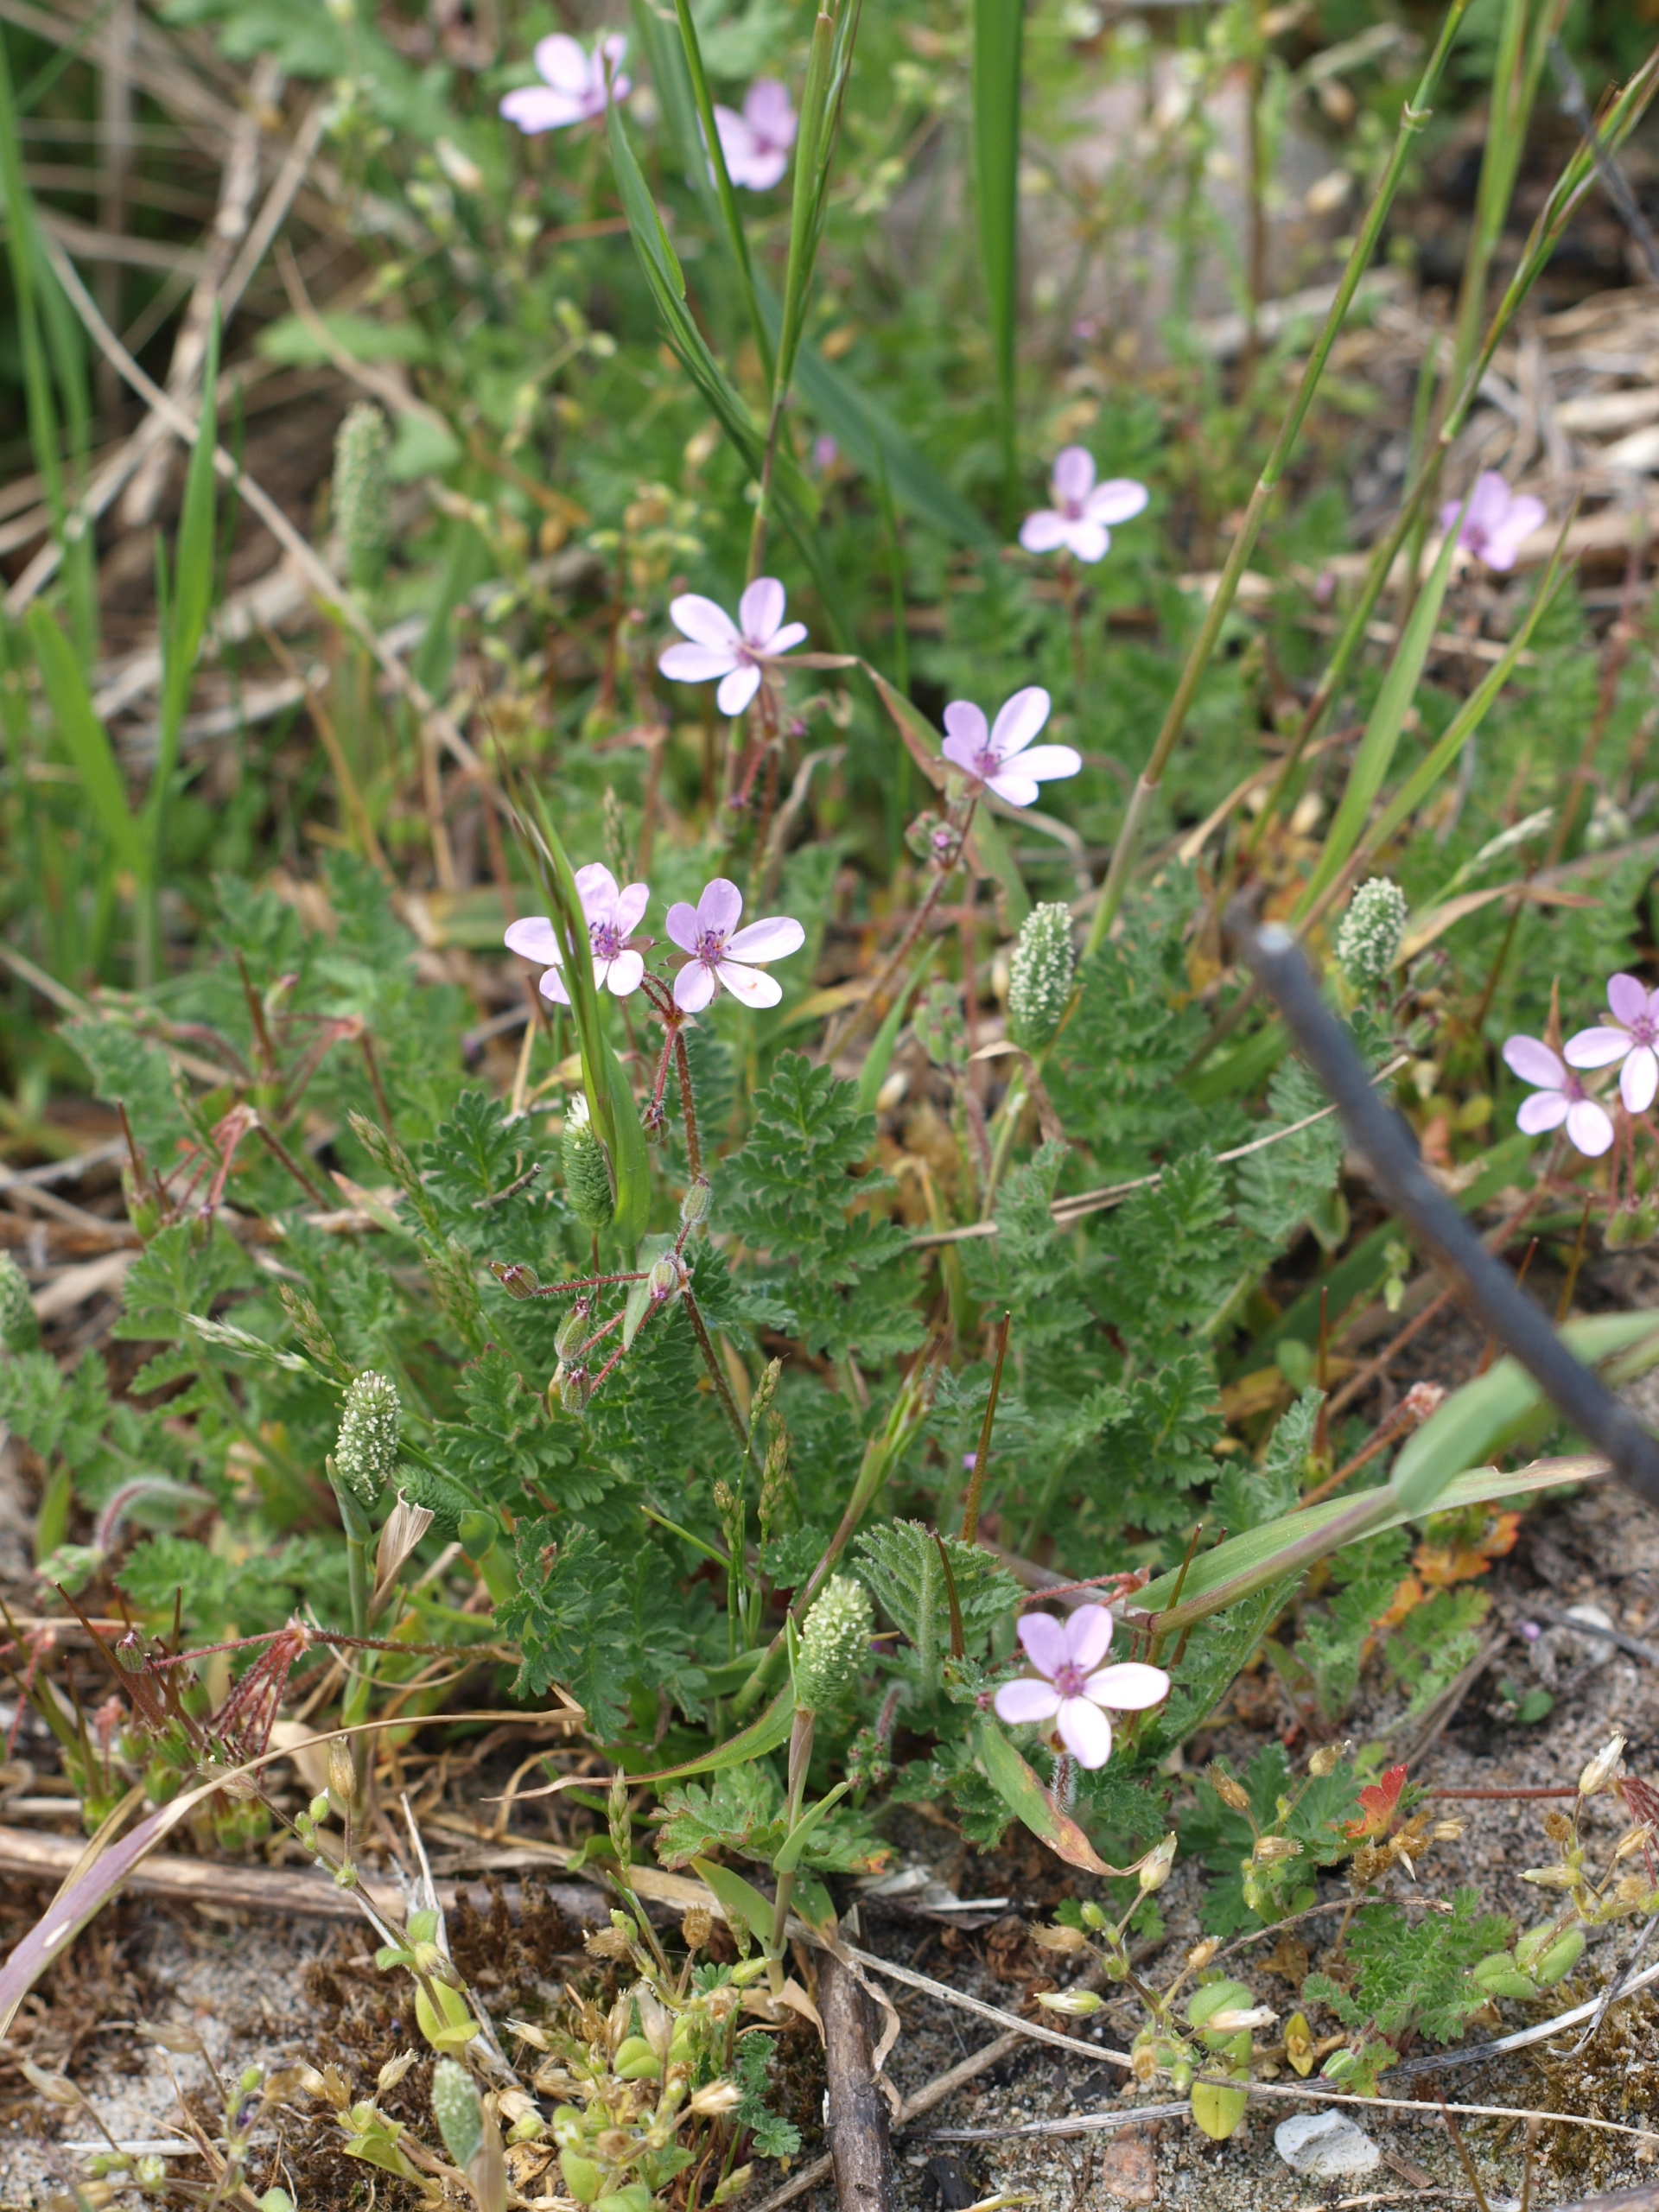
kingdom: Plantae
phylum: Tracheophyta
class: Magnoliopsida
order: Geraniales
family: Geraniaceae
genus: Erodium
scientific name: Erodium cicutarium
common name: Hejrenæb
